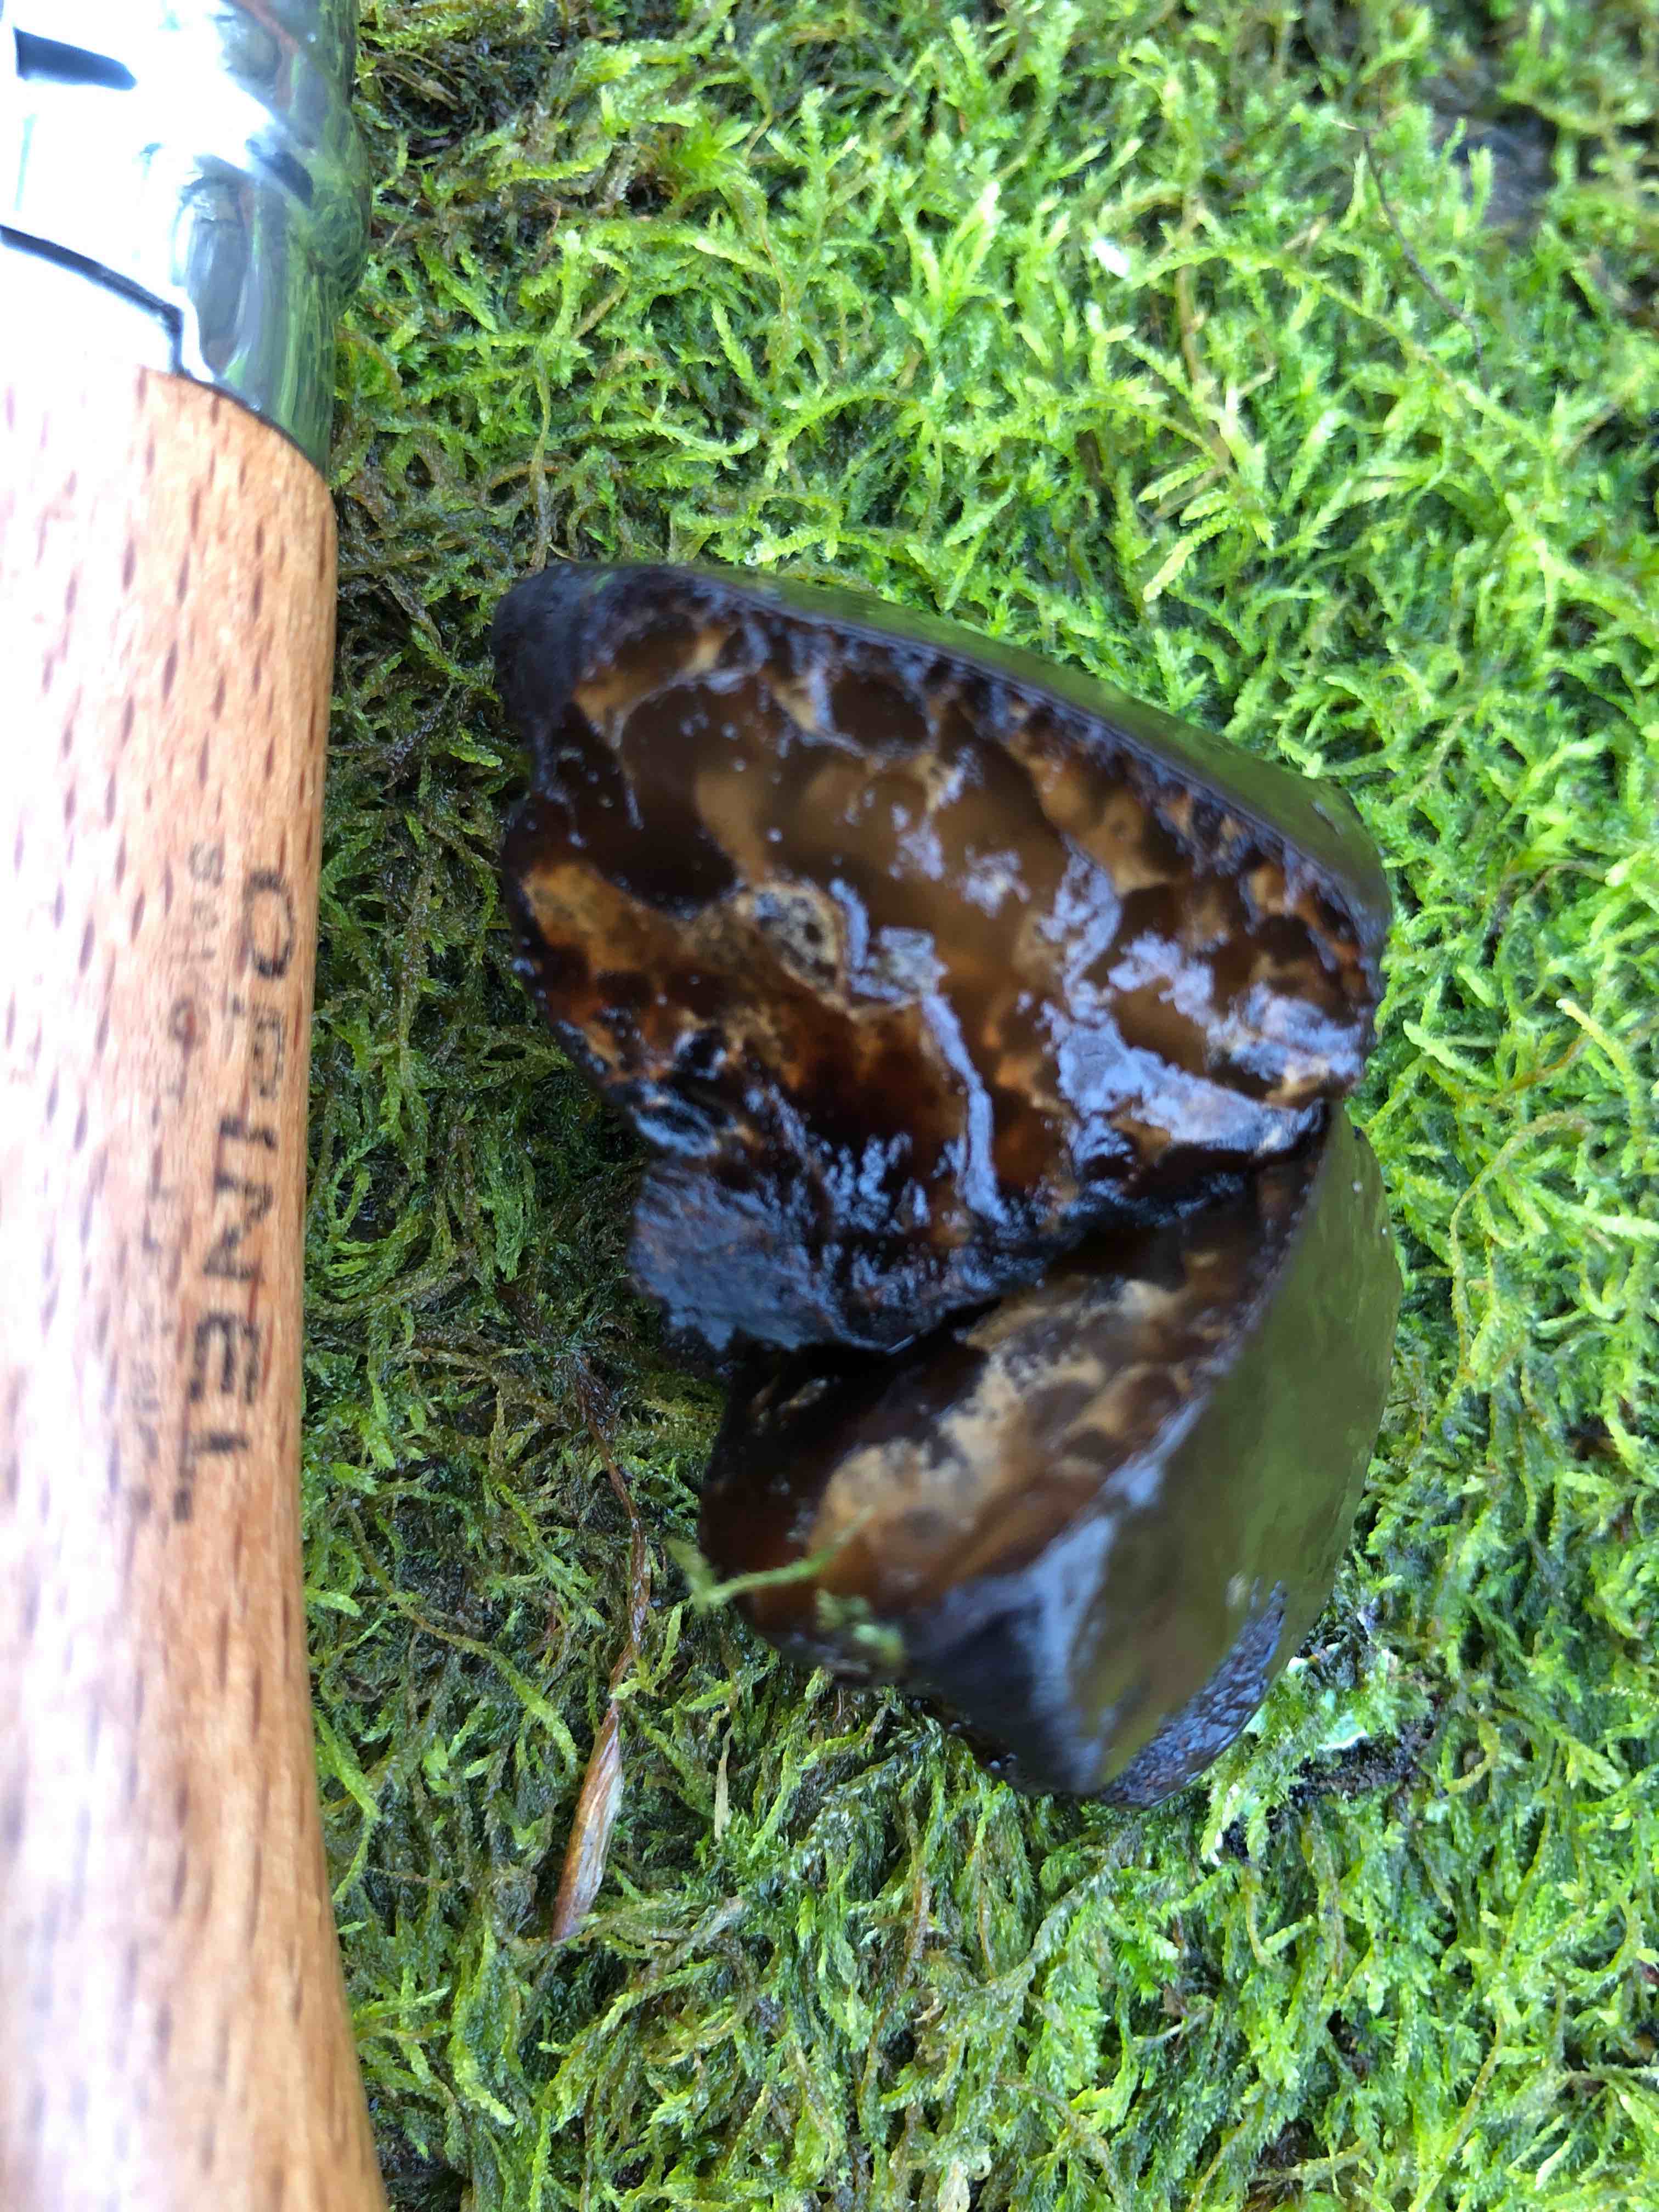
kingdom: Fungi
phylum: Ascomycota
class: Leotiomycetes
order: Phacidiales
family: Phacidiaceae
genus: Bulgaria
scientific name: Bulgaria inquinans
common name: afsmittende topsvamp
